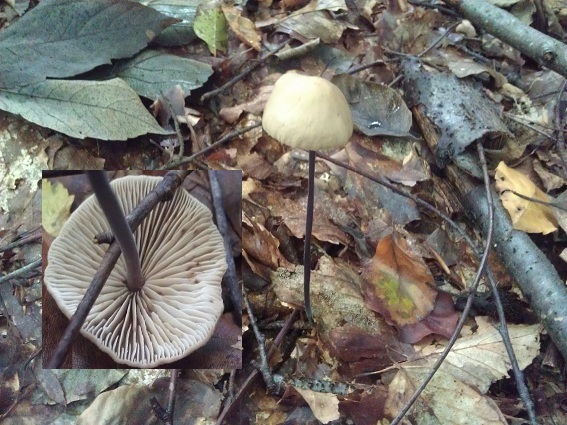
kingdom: Fungi
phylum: Basidiomycota
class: Agaricomycetes
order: Agaricales
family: Omphalotaceae
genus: Mycetinis
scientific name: Mycetinis alliaceus
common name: stor løghat
